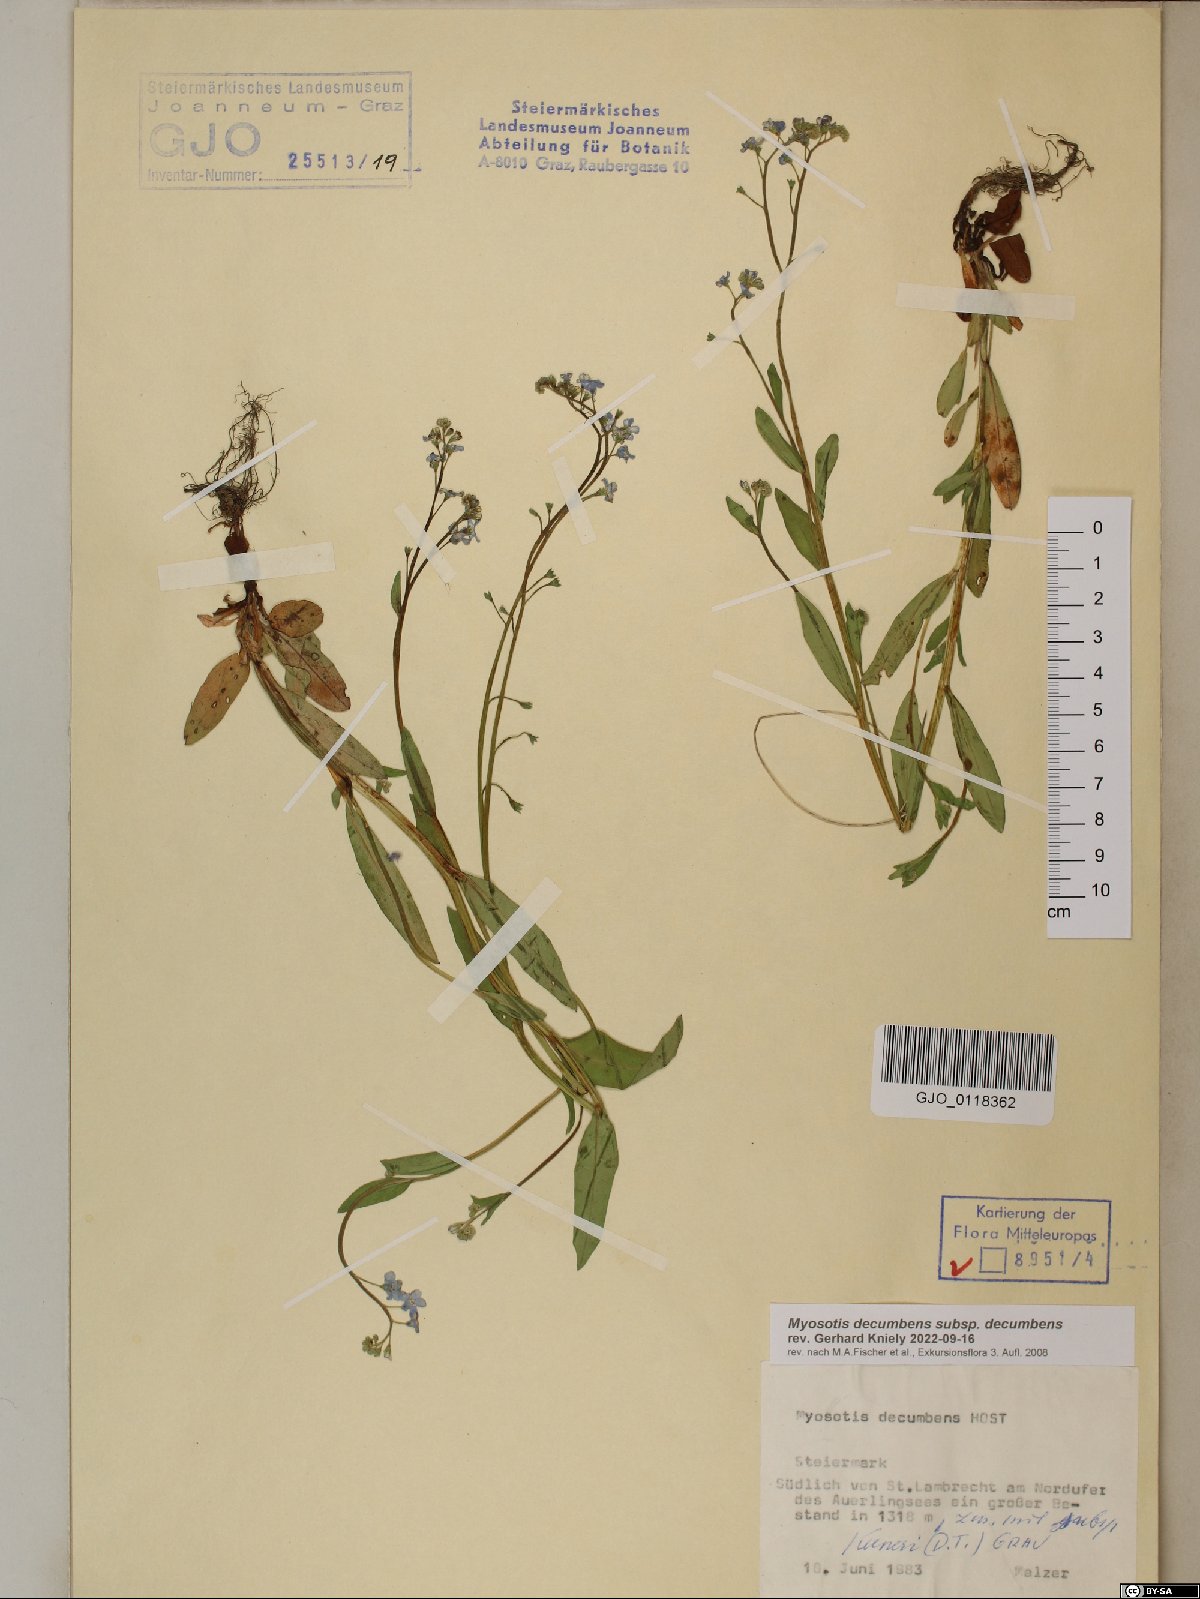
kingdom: Plantae
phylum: Tracheophyta
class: Magnoliopsida
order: Boraginales
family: Boraginaceae
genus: Myosotis
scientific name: Myosotis decumbens
